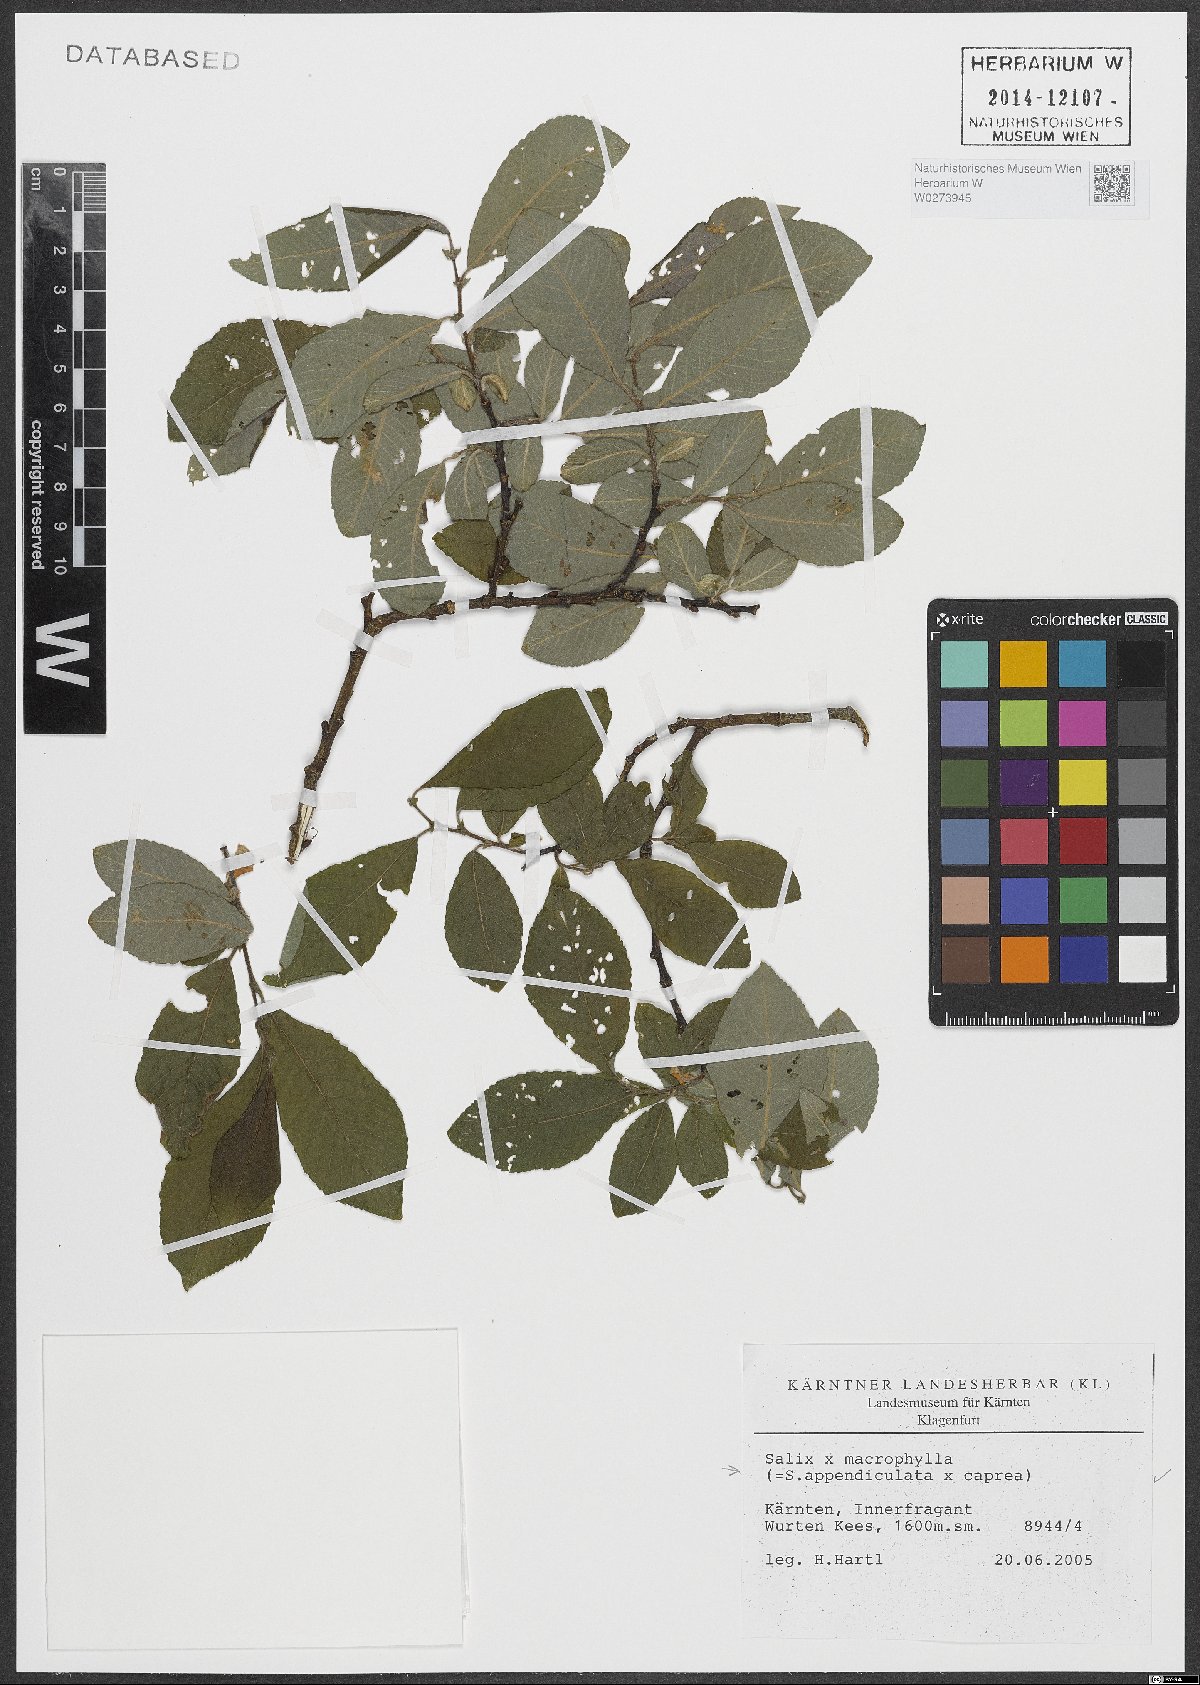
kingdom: Plantae
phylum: Tracheophyta
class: Magnoliopsida
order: Malpighiales
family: Salicaceae
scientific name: Salicaceae
